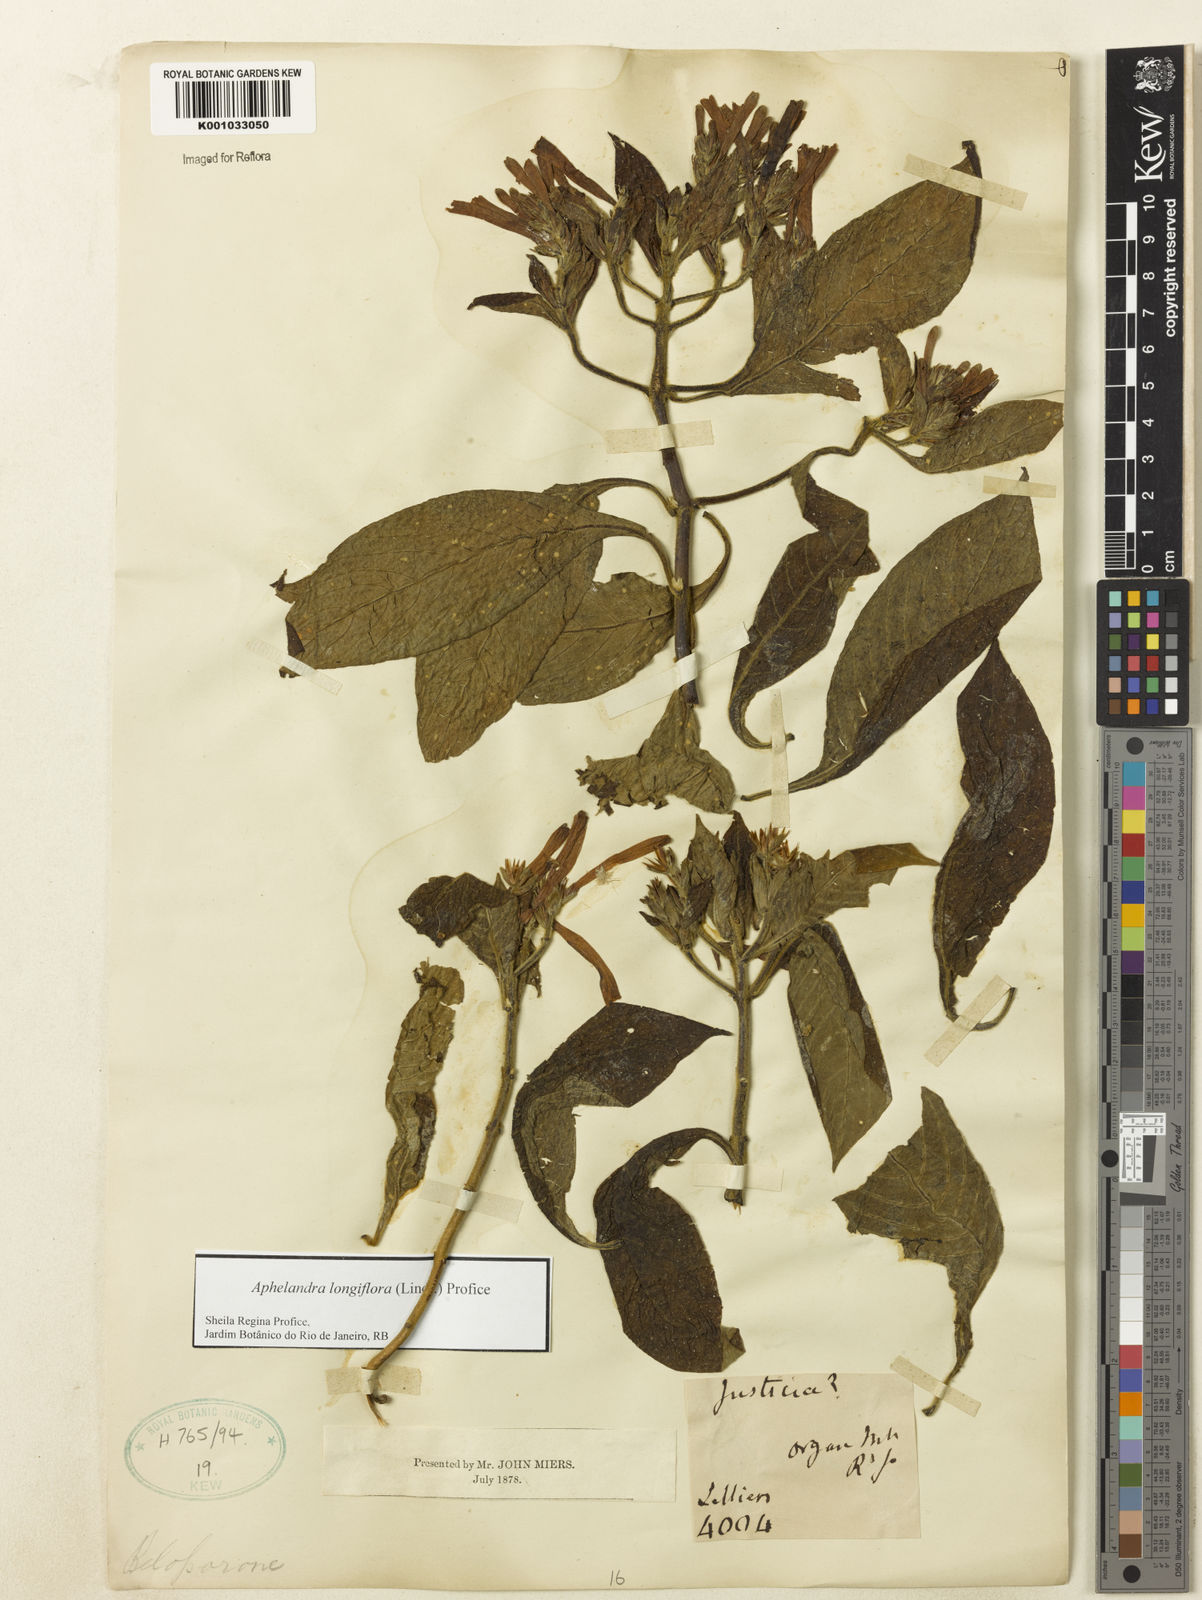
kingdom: Plantae
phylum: Tracheophyta
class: Magnoliopsida
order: Lamiales
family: Acanthaceae
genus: Aphelandra
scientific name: Aphelandra longiflora
